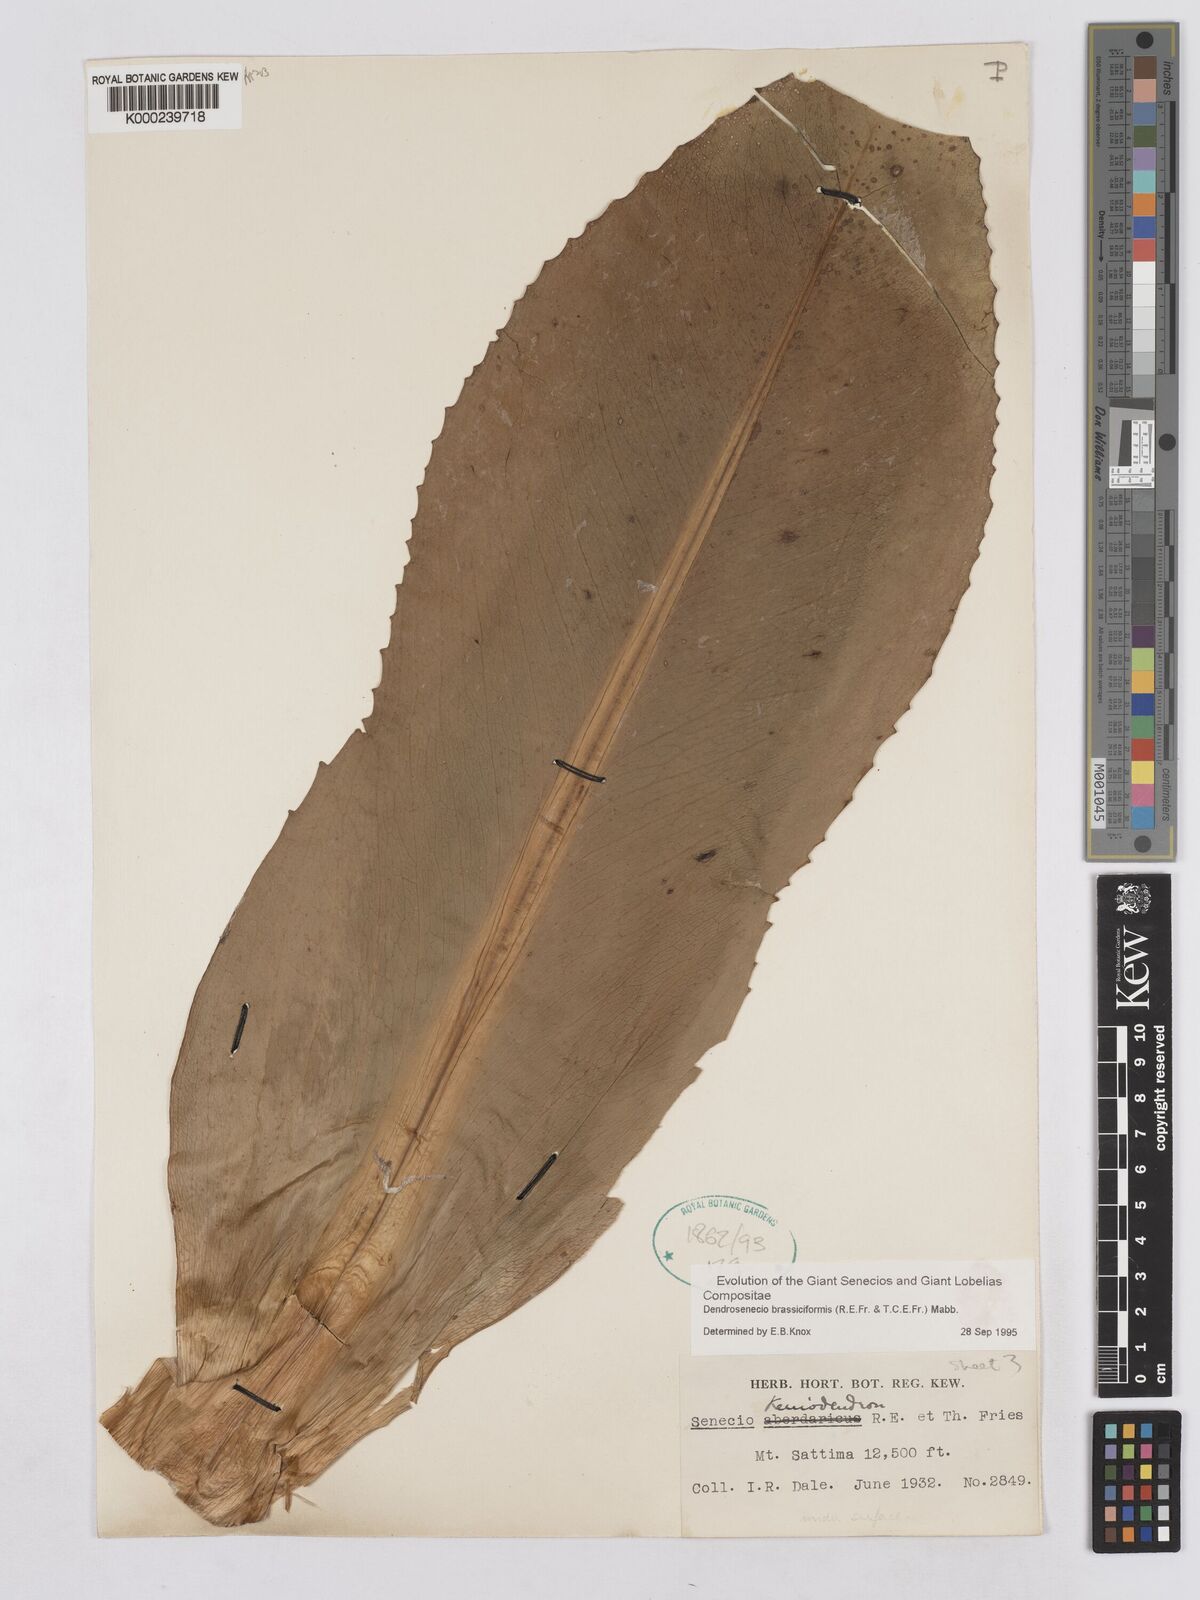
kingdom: Plantae
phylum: Tracheophyta
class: Magnoliopsida
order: Asterales
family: Asteraceae
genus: Dendrosenecio
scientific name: Dendrosenecio brassiciformis
